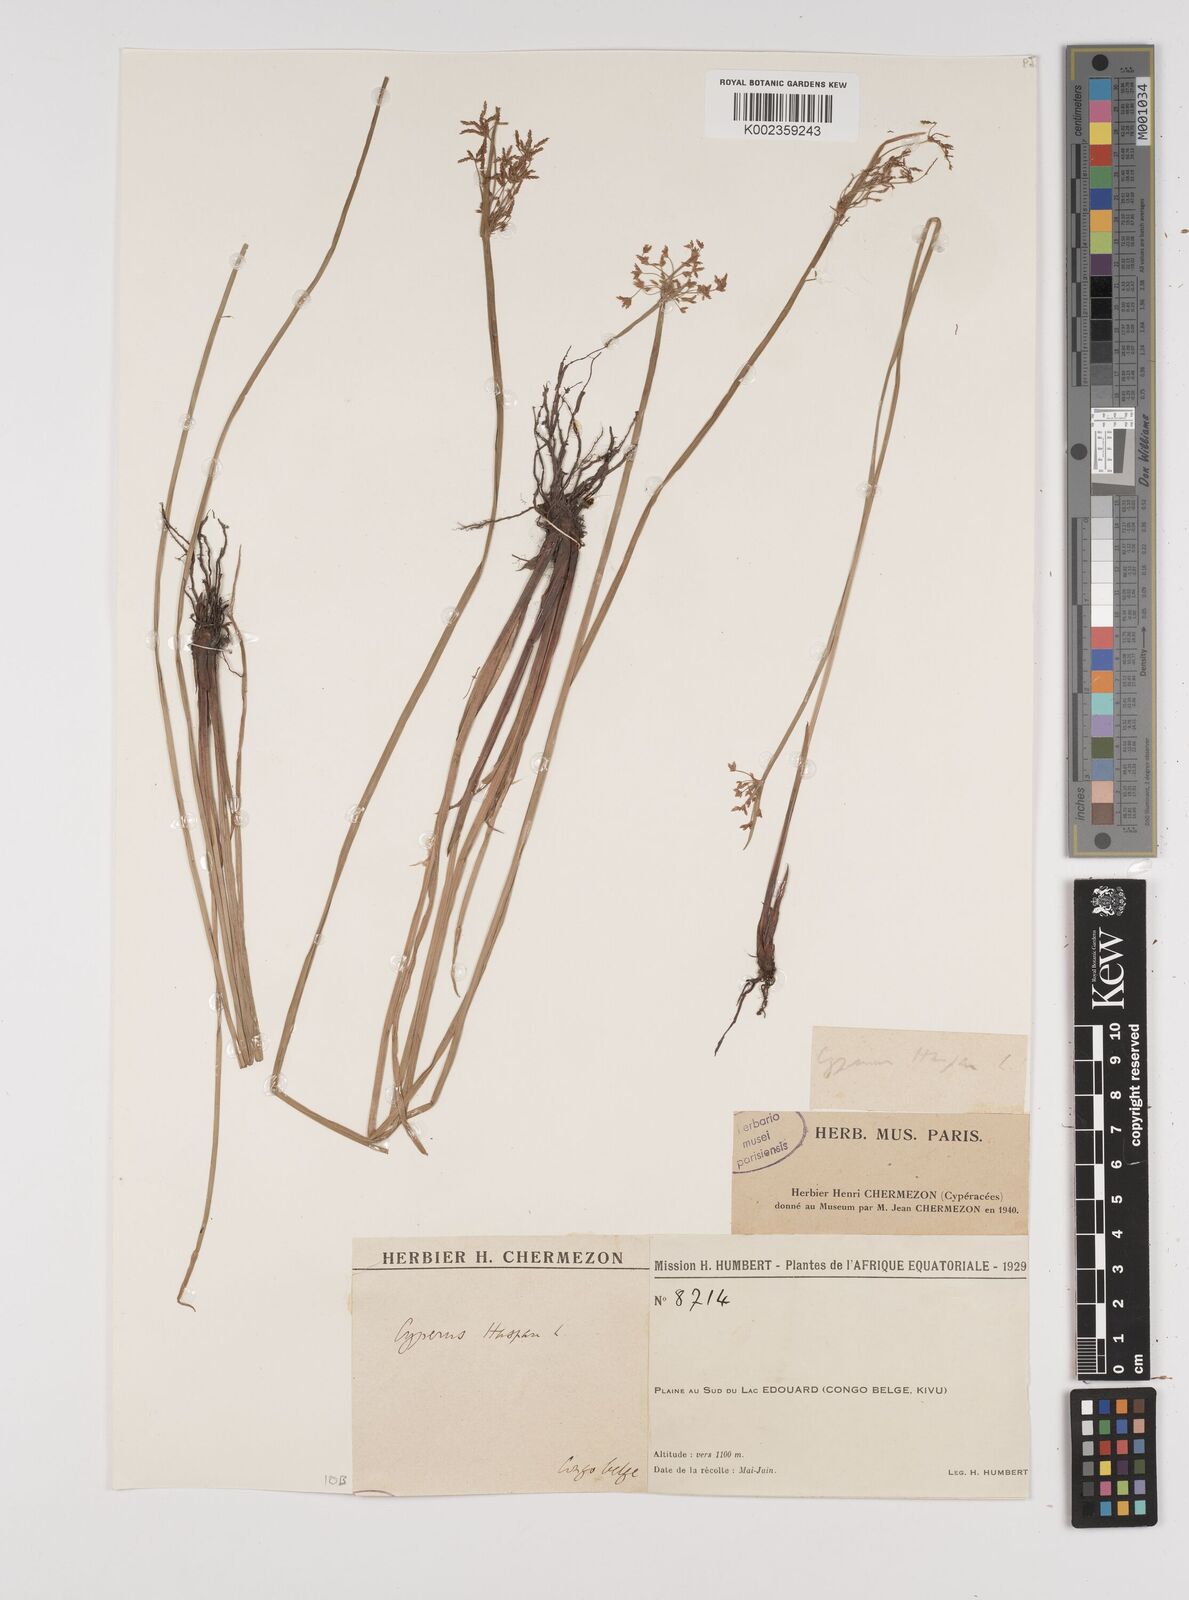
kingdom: Plantae
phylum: Tracheophyta
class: Liliopsida
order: Poales
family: Cyperaceae
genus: Cyperus
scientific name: Cyperus haspan
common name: Haspan flatsedge
